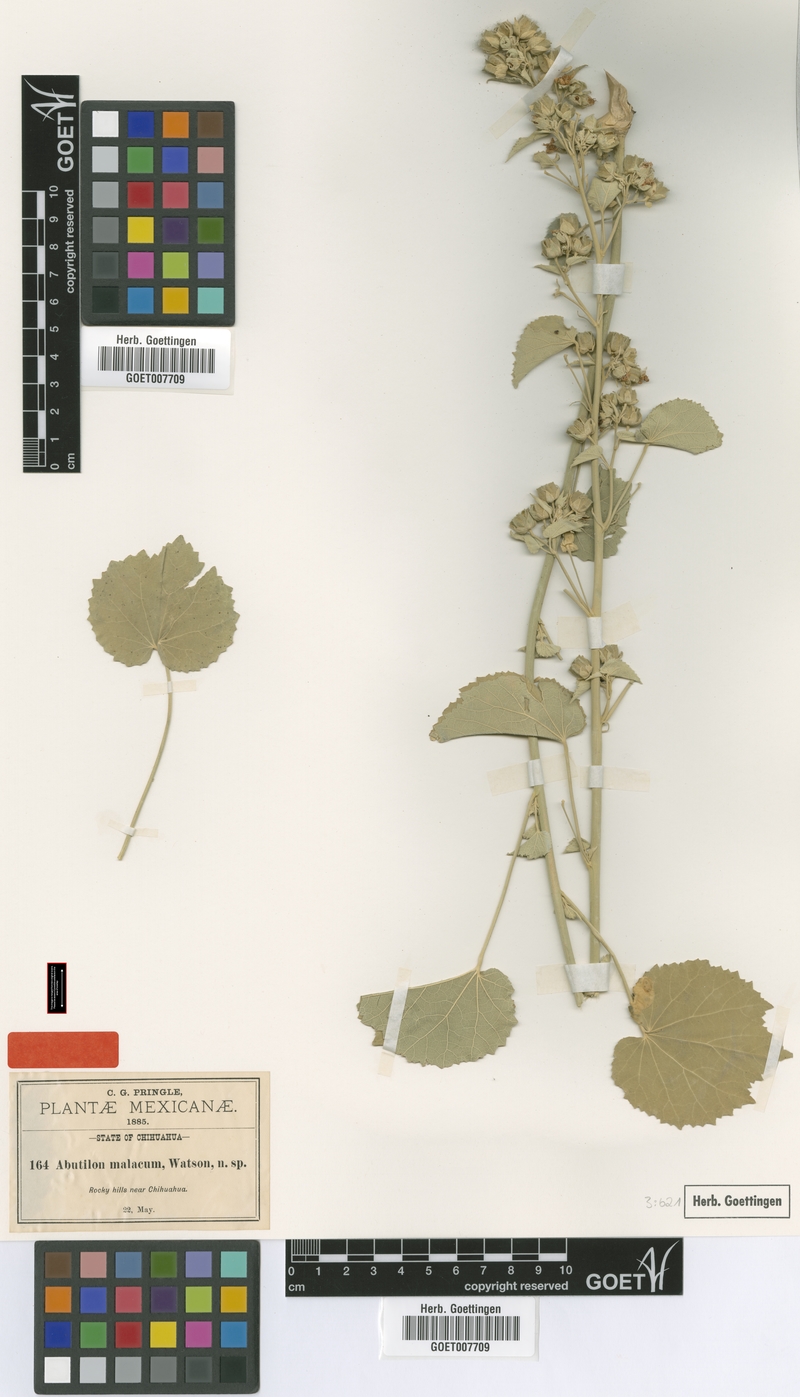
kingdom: Plantae
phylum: Tracheophyta
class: Magnoliopsida
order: Malvales
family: Malvaceae
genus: Abutilon
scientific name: Abutilon malacum
